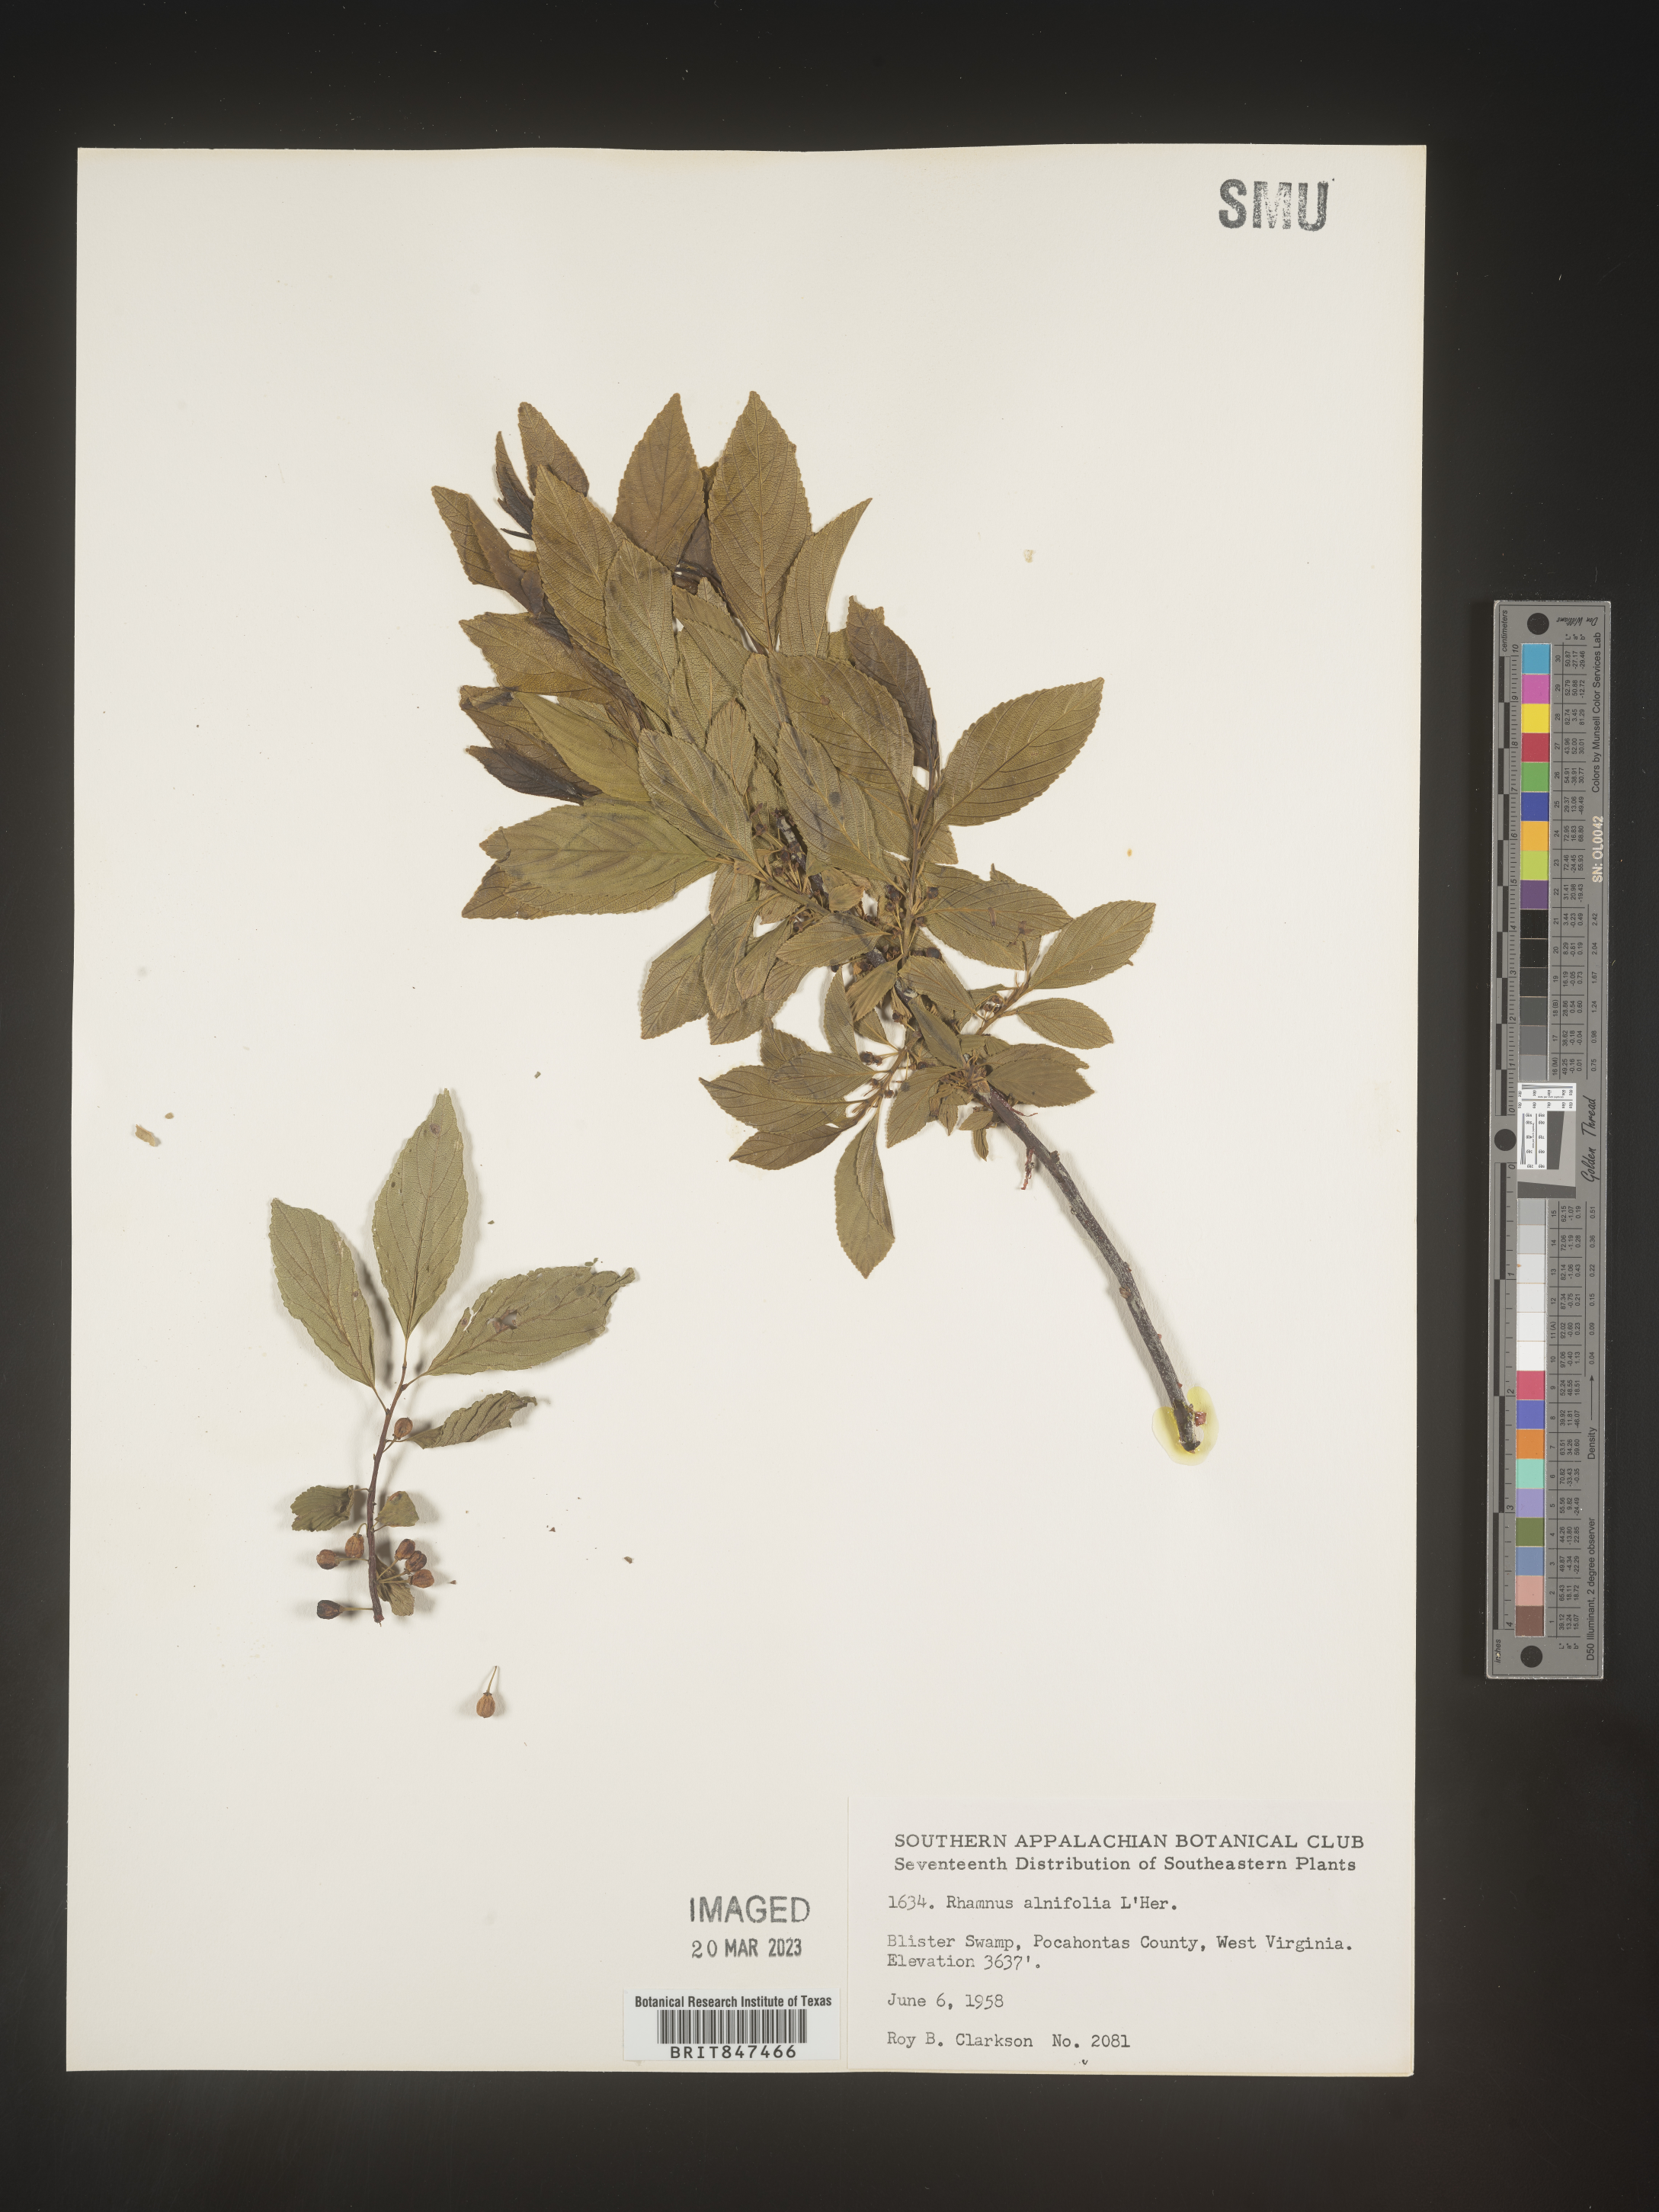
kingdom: Plantae
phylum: Tracheophyta
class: Magnoliopsida
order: Rosales
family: Rhamnaceae
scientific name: Rhamnaceae
